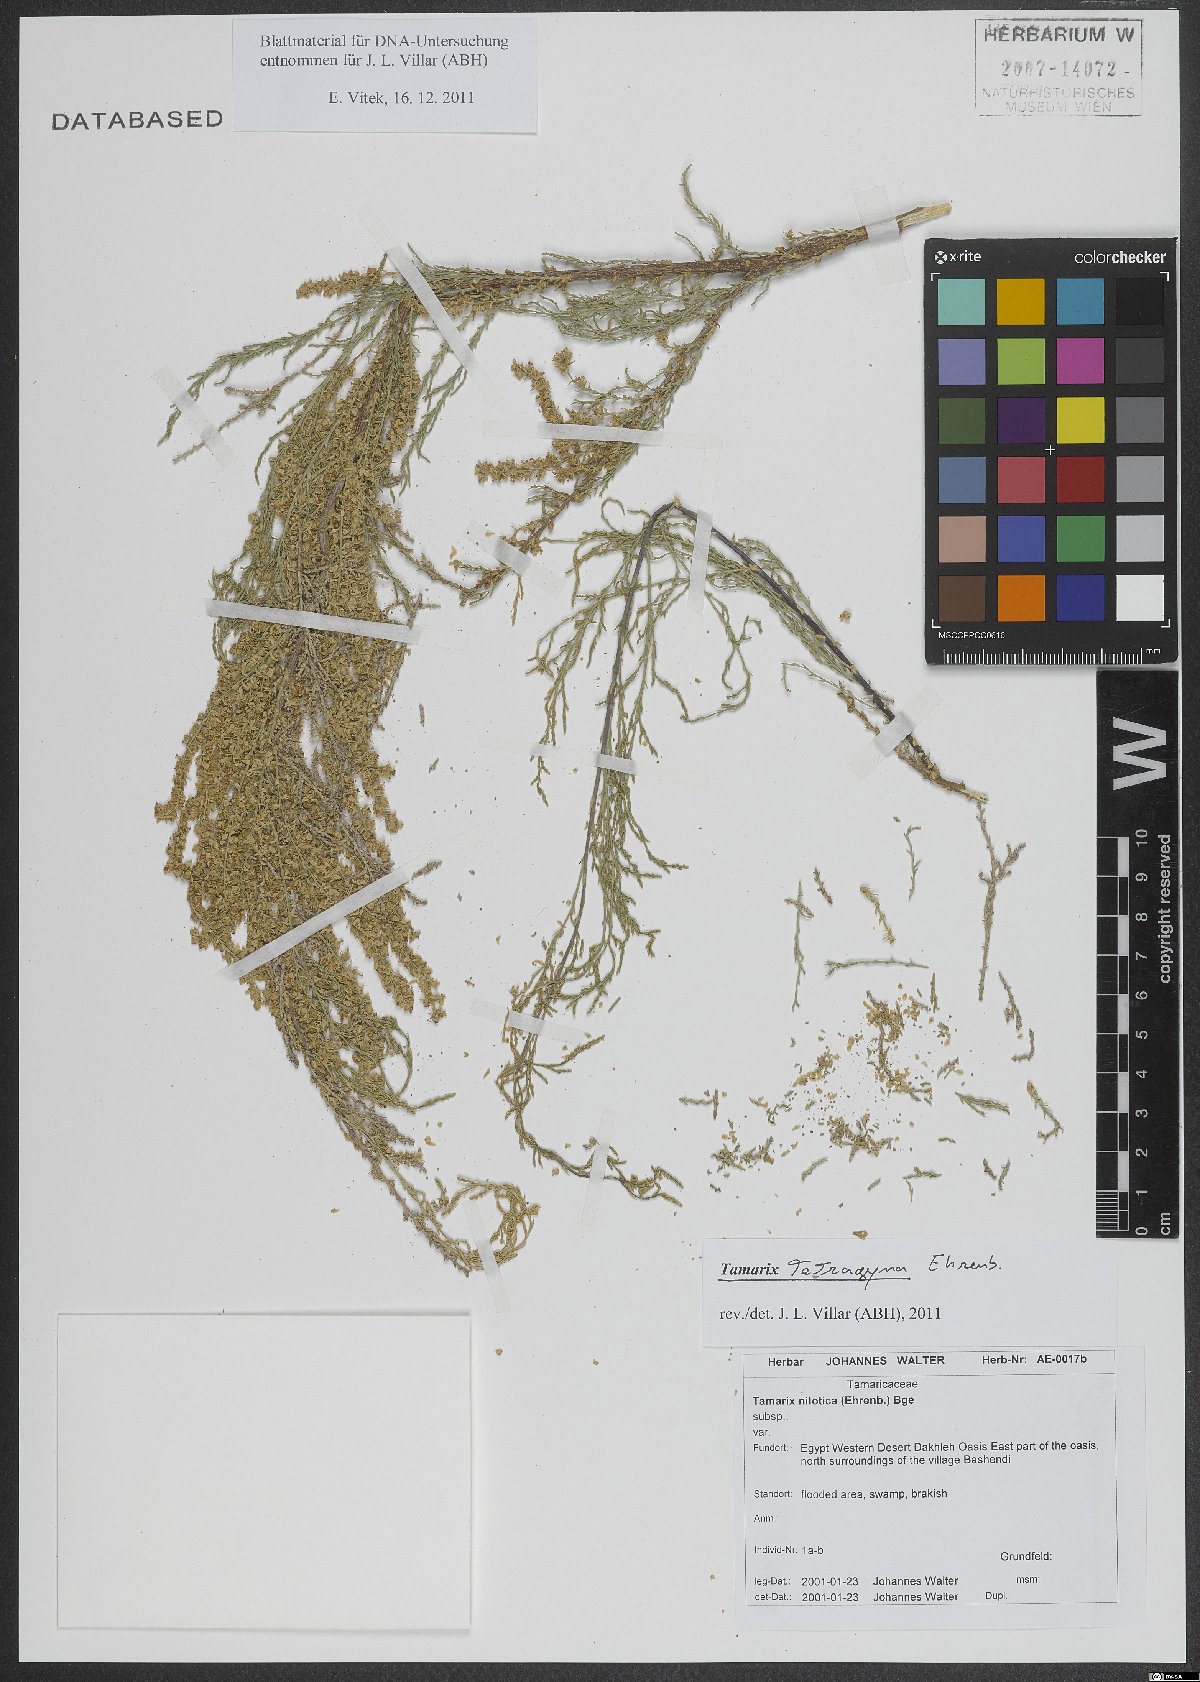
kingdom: Plantae
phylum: Tracheophyta
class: Magnoliopsida
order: Caryophyllales
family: Tamaricaceae
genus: Tamarix
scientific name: Tamarix tetragyna
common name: Four-stamen tamarisk
